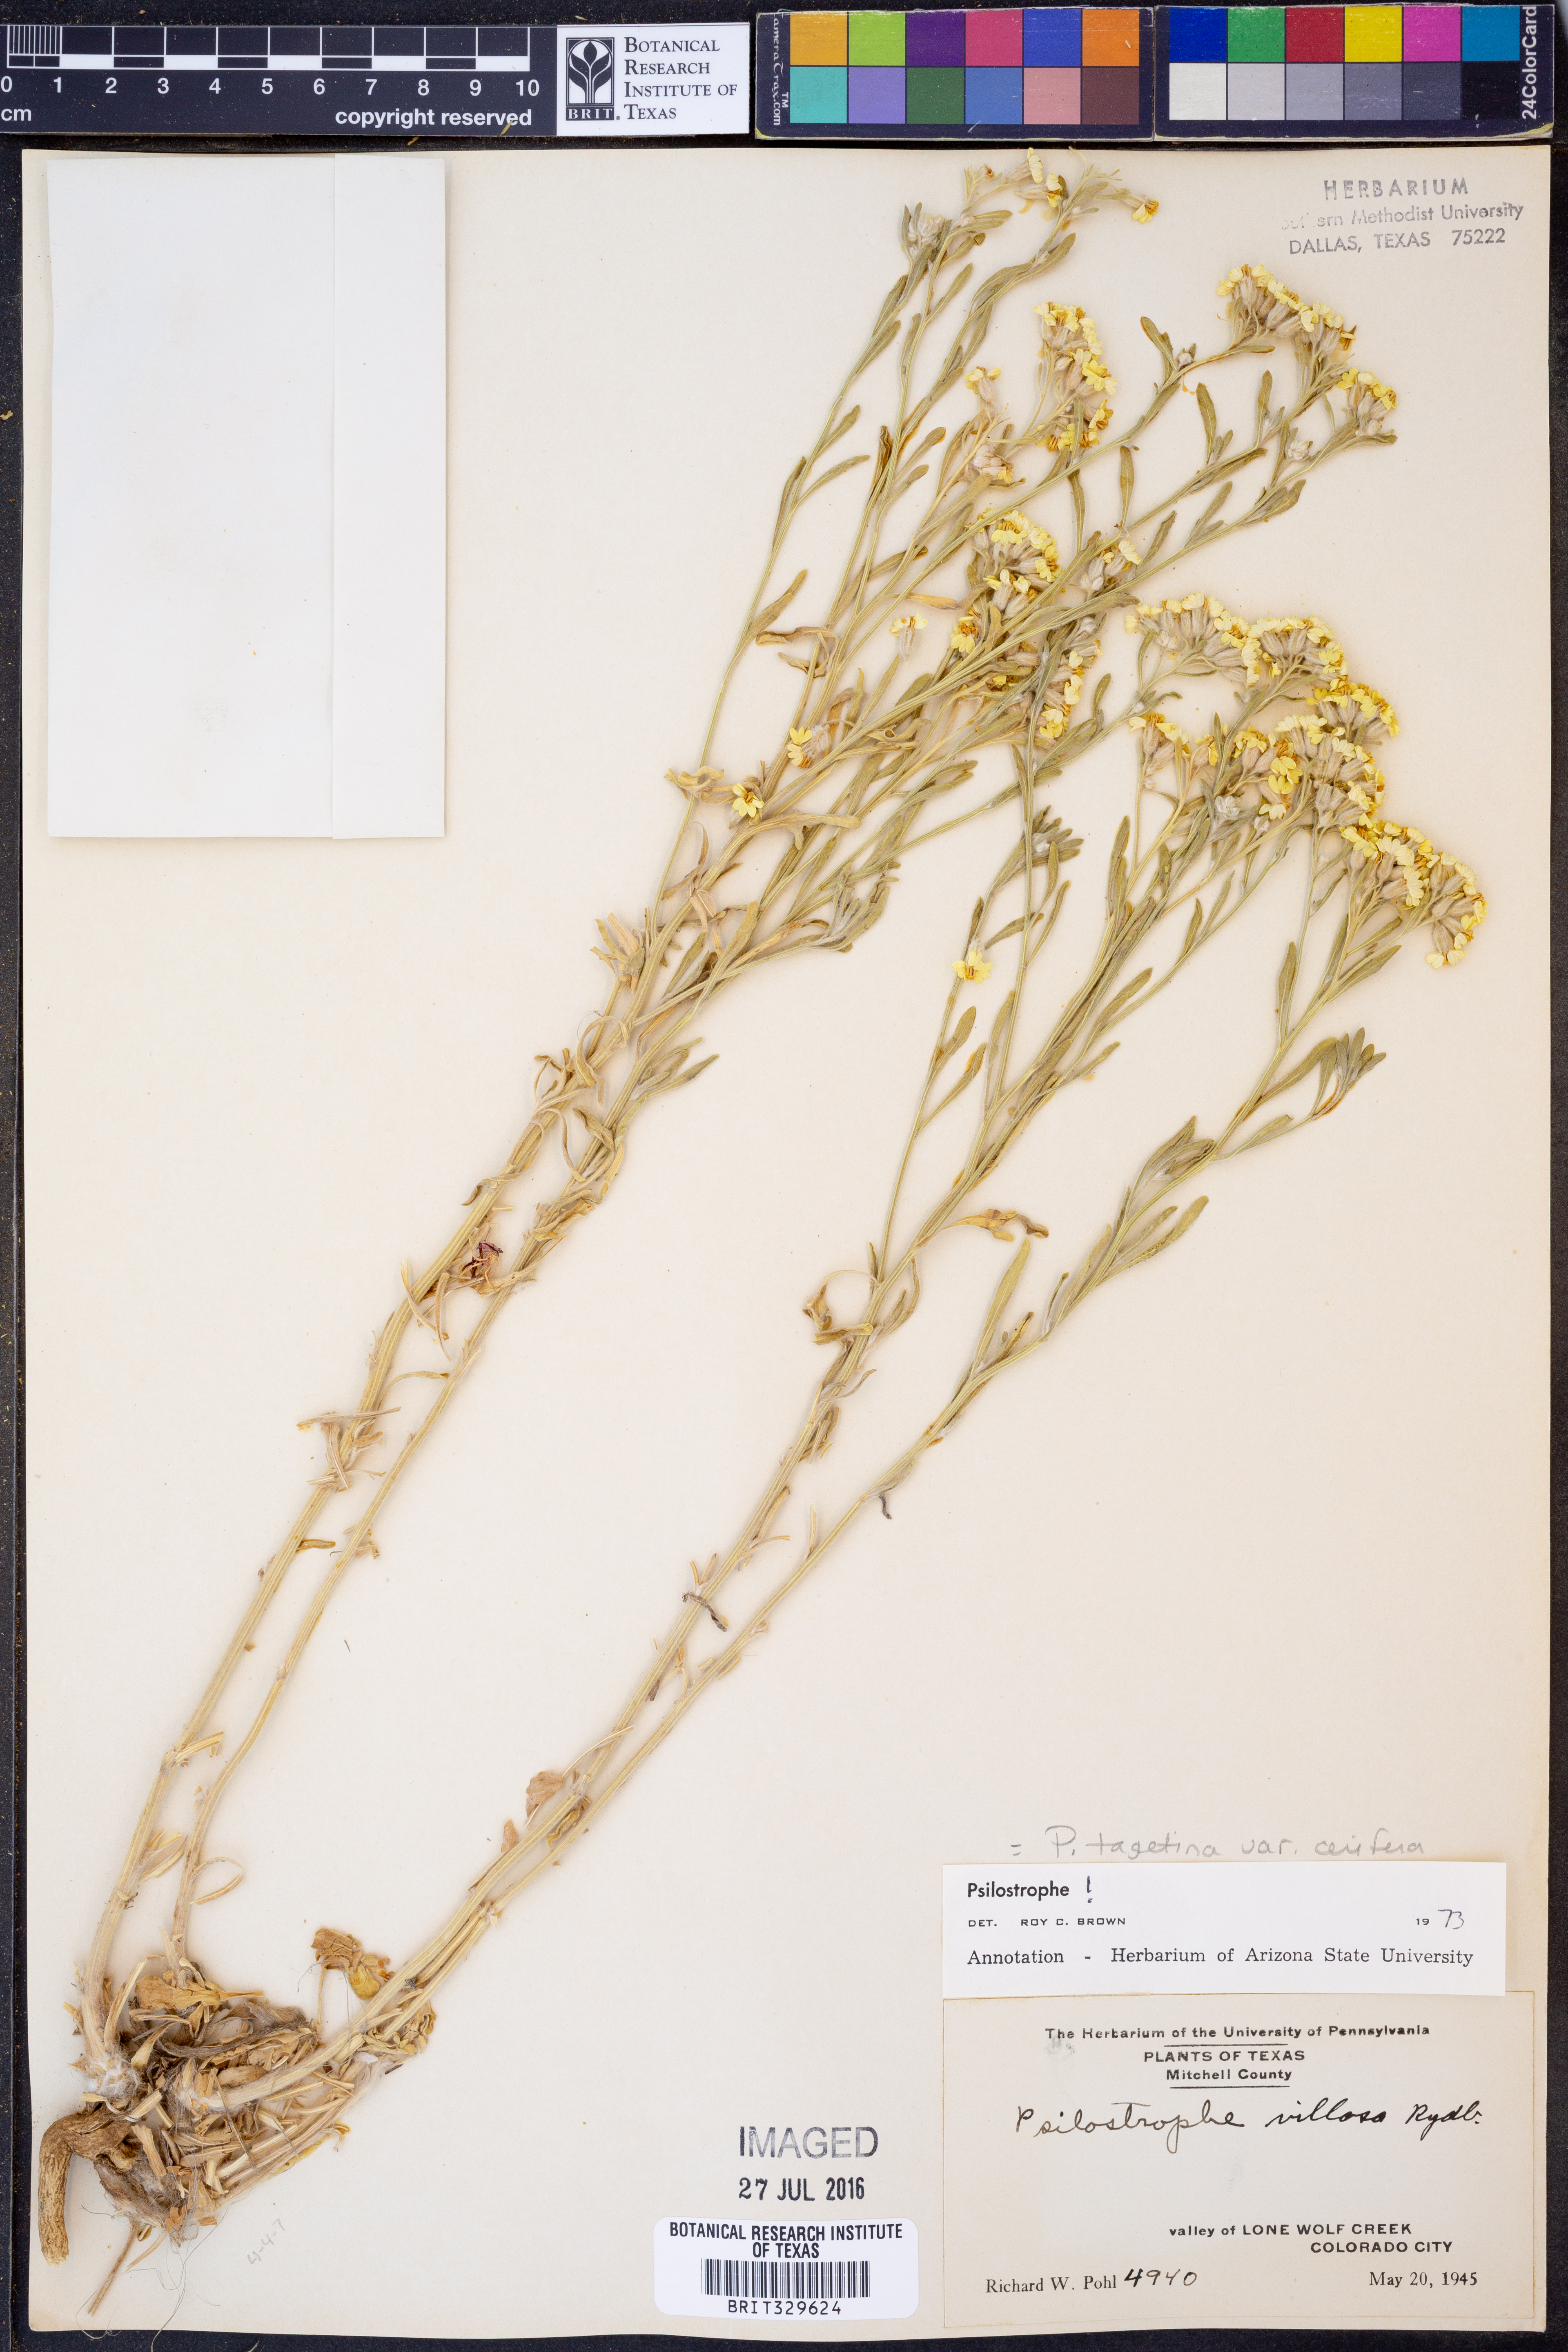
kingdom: Plantae
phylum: Tracheophyta
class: Magnoliopsida
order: Asterales
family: Asteraceae
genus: Psilostrophe
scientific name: Psilostrophe villosa
